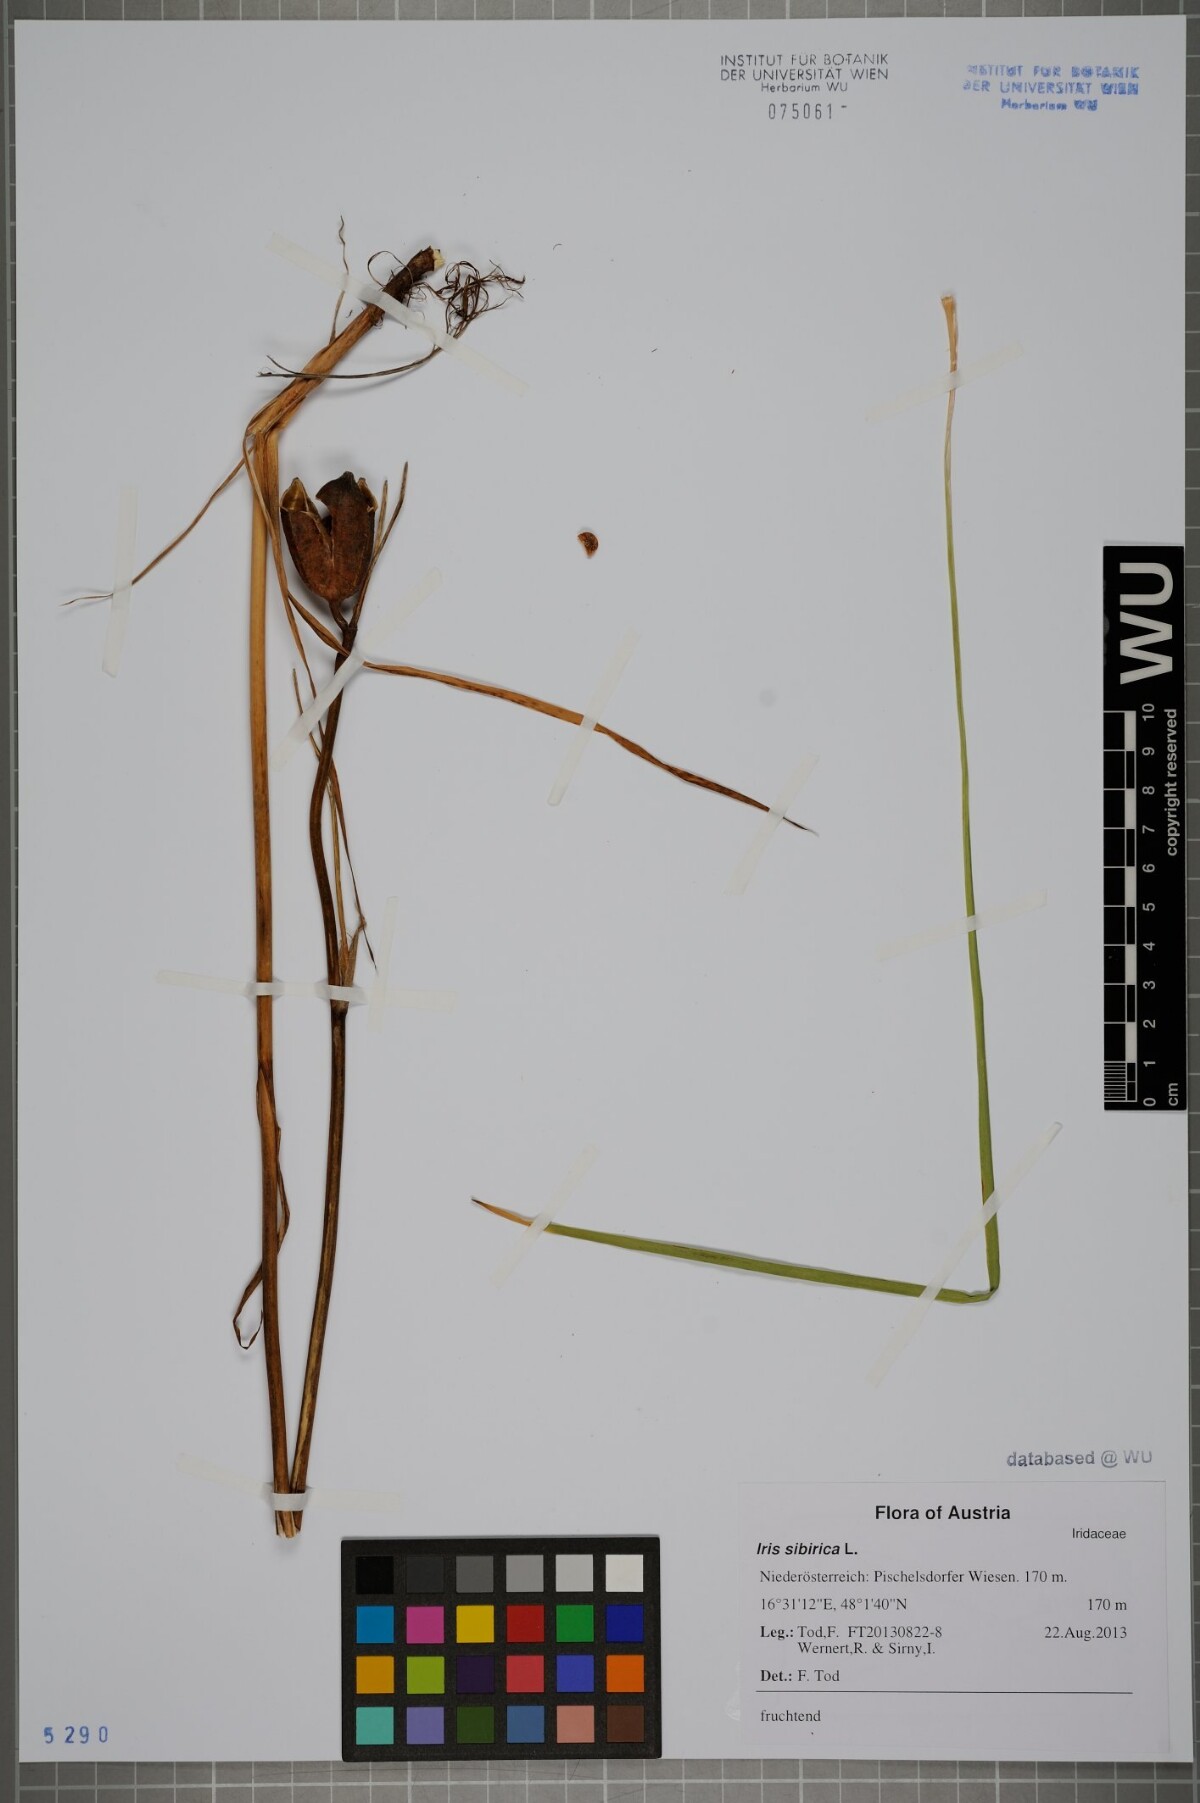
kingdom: Plantae
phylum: Tracheophyta
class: Liliopsida
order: Asparagales
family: Iridaceae
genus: Iris
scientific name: Iris sibirica
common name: Siberian iris
